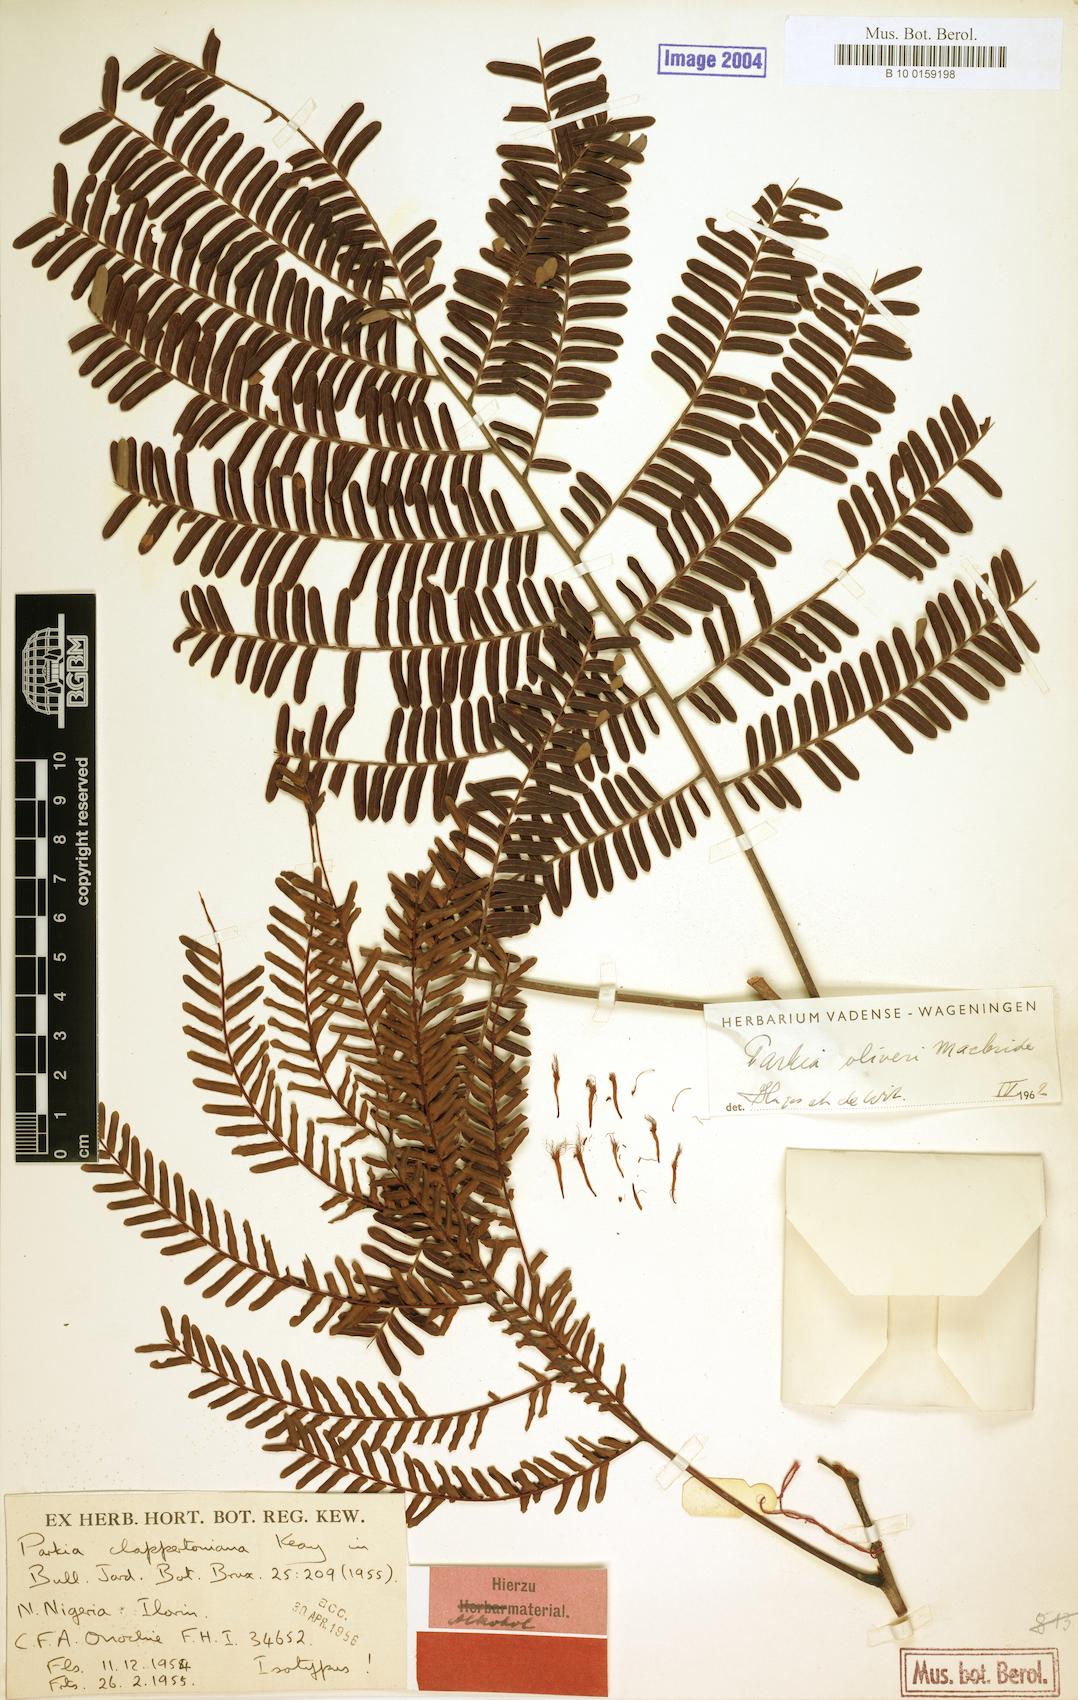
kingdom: Plantae
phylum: Tracheophyta
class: Magnoliopsida
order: Fabales
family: Fabaceae
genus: Parkia
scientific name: Parkia biglobosa
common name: African locust-bean
